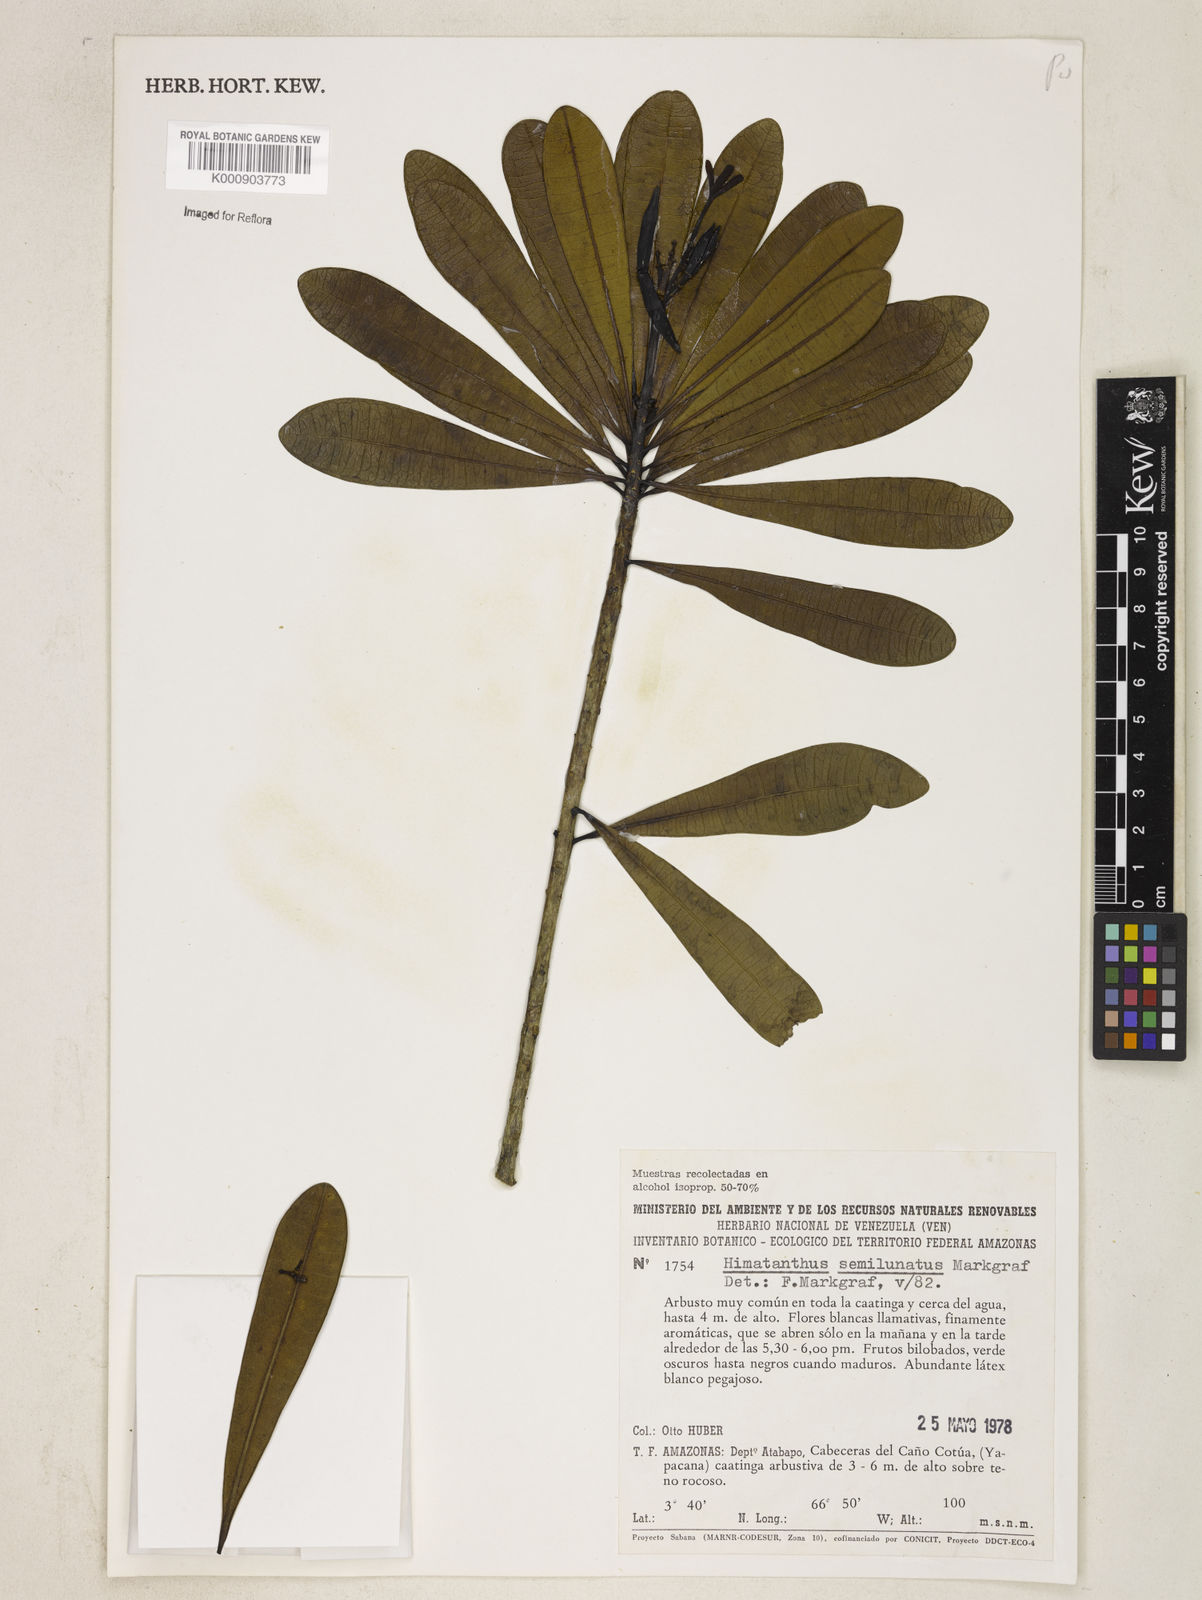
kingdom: Plantae
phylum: Tracheophyta
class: Magnoliopsida
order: Gentianales
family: Apocynaceae
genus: Himatanthus
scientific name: Himatanthus semilunatus
